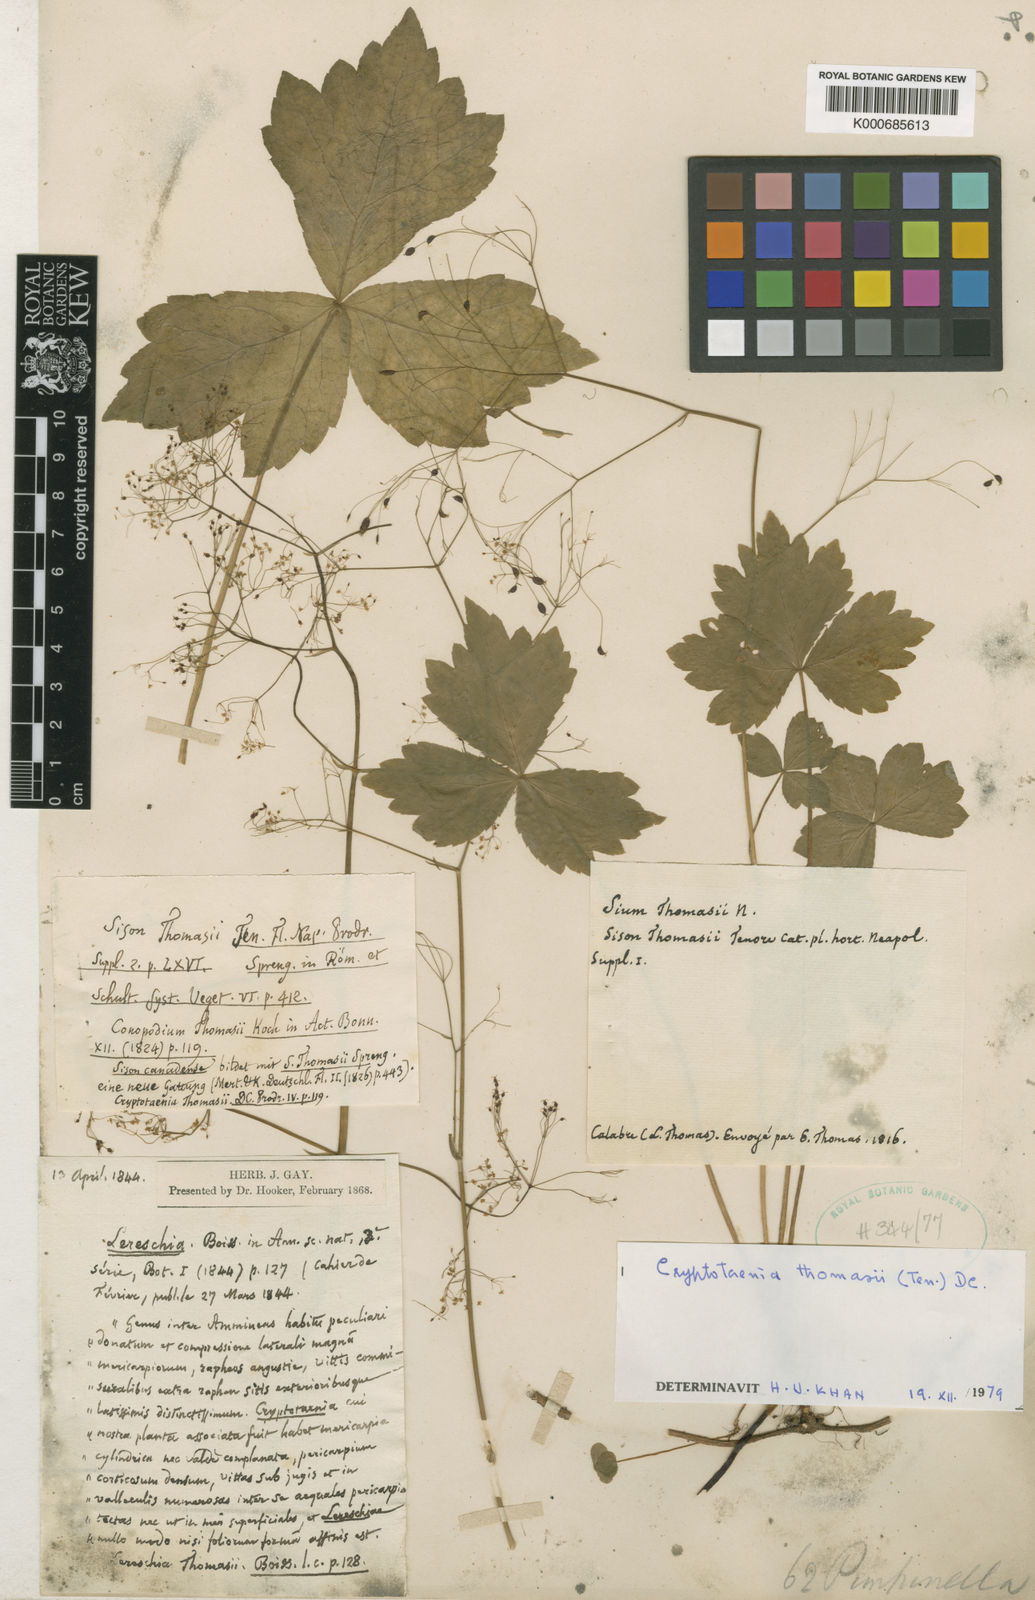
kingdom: Plantae
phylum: Tracheophyta
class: Magnoliopsida
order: Apiales
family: Apiaceae
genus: Cryptotaenia
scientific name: Cryptotaenia thomasii
